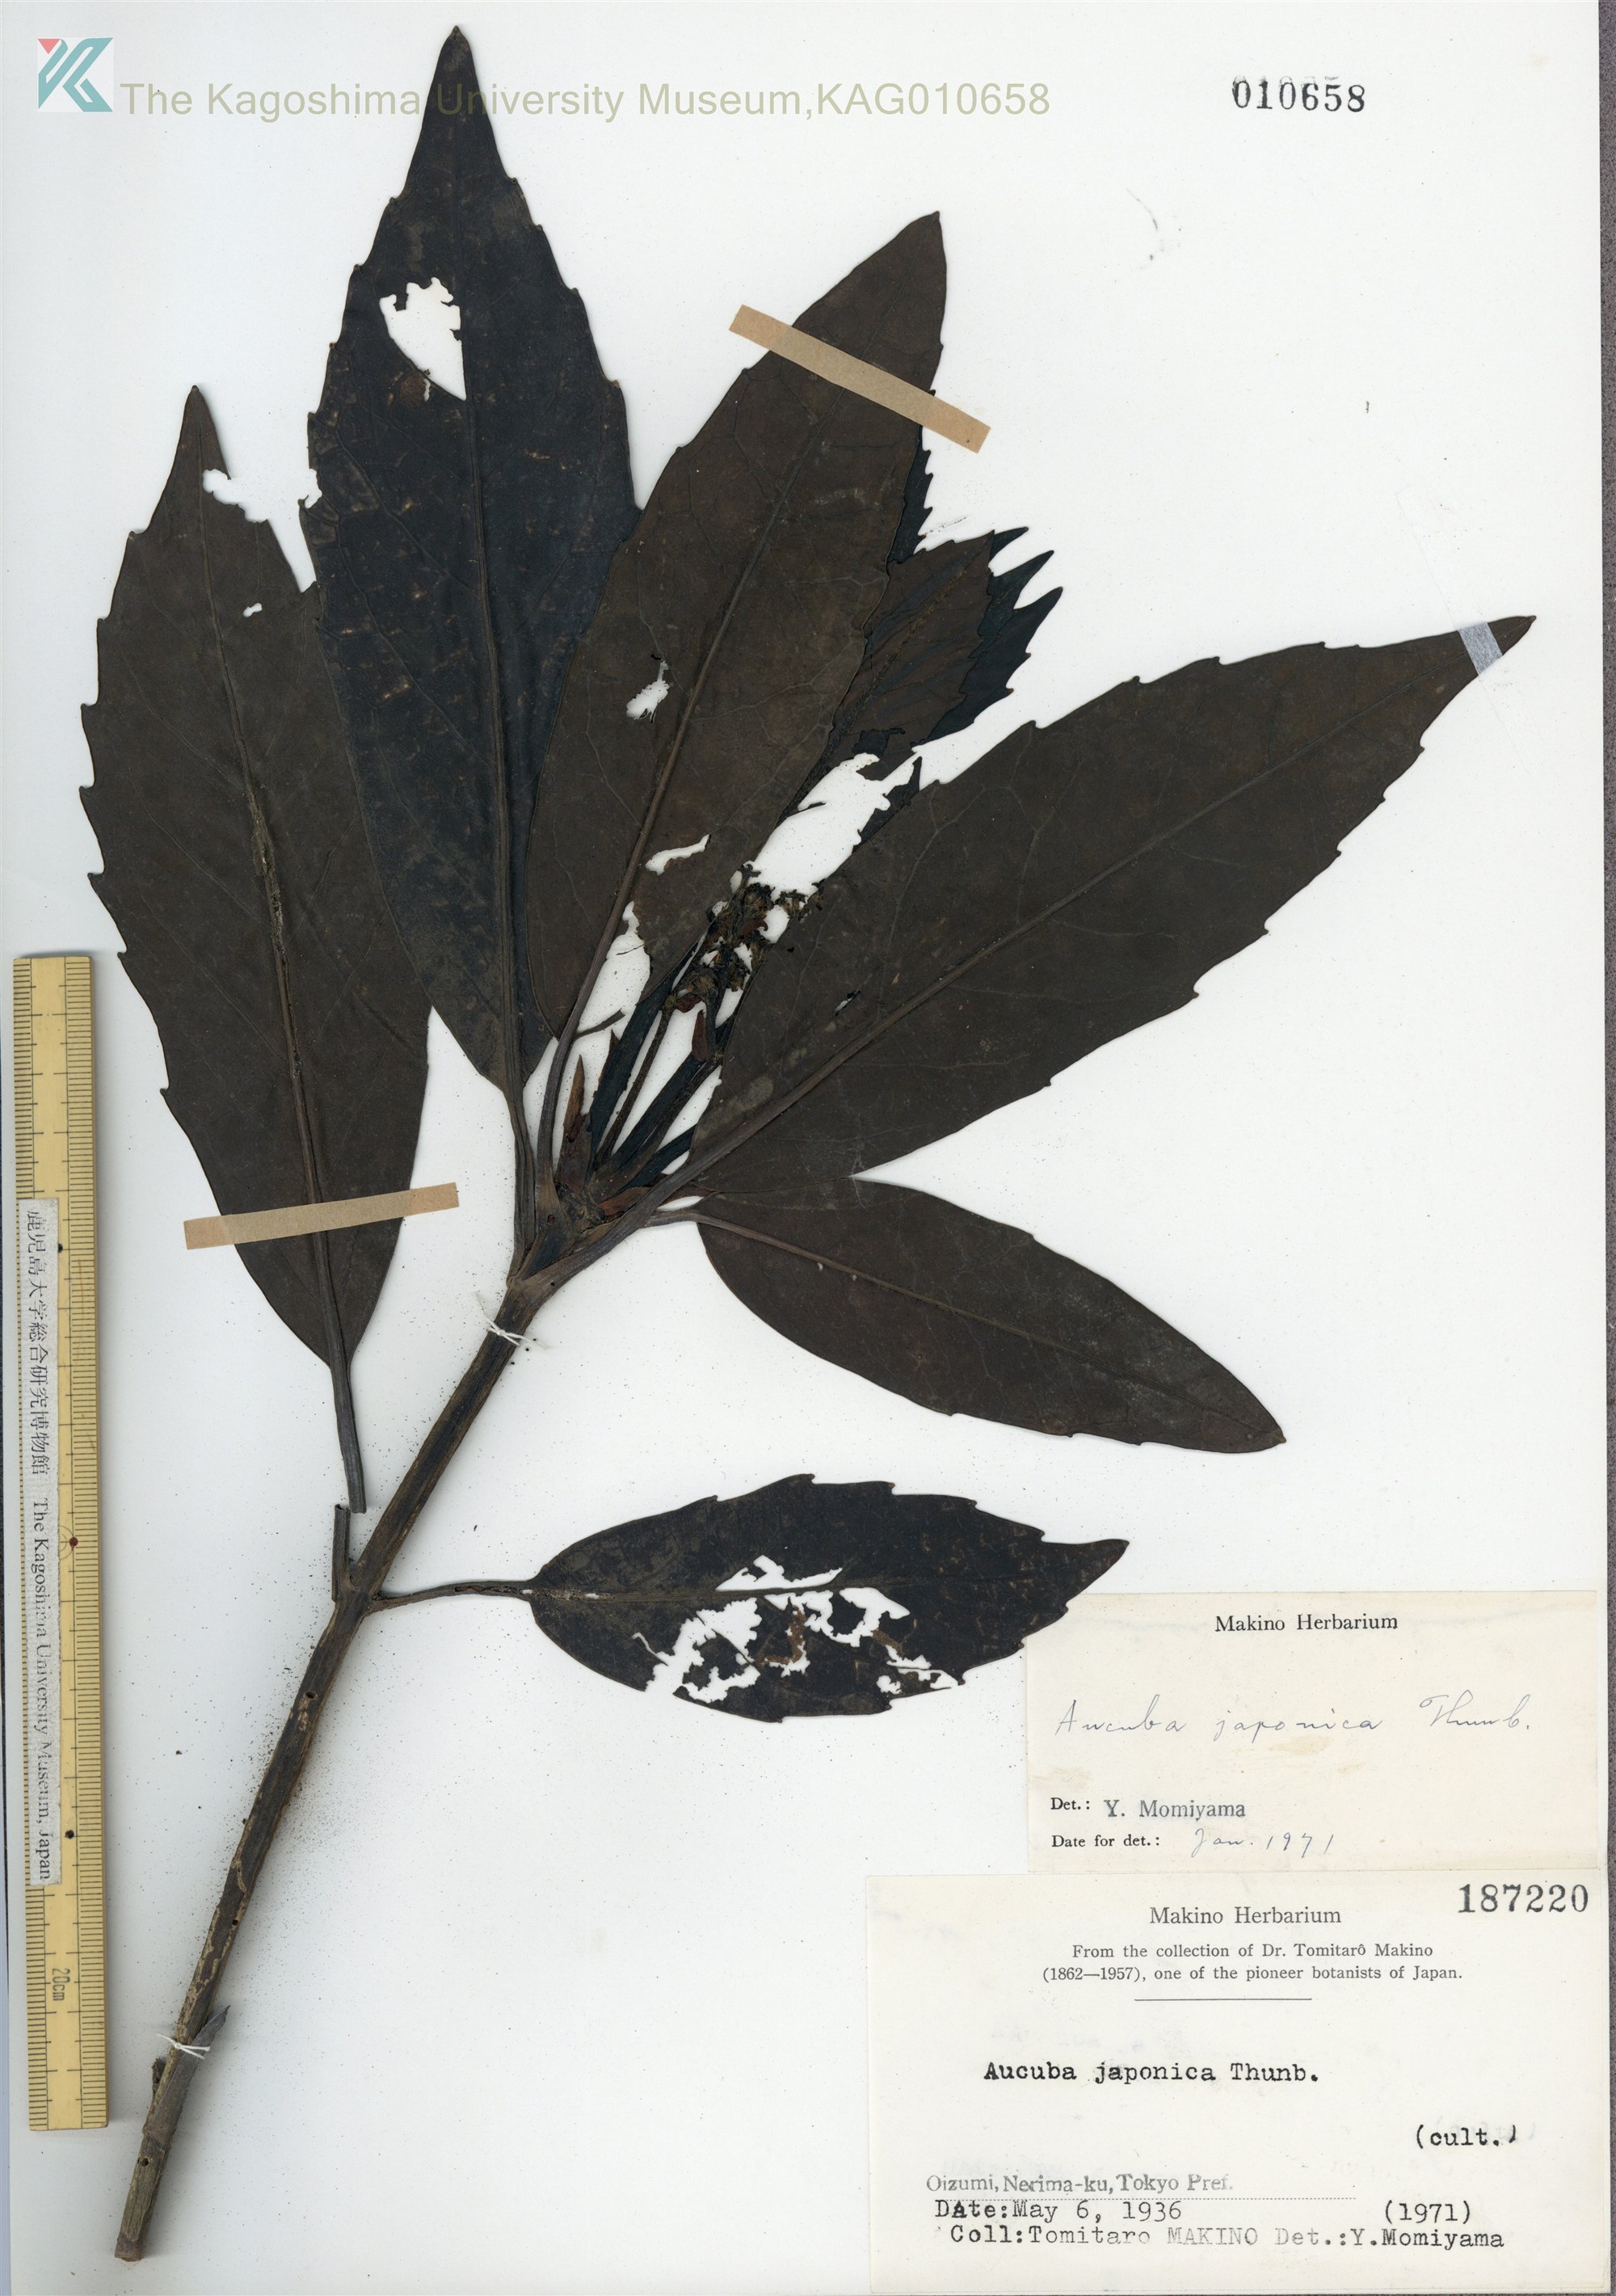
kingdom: Plantae
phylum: Tracheophyta
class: Magnoliopsida
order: Garryales
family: Garryaceae
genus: Aucuba
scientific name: Aucuba japonica
